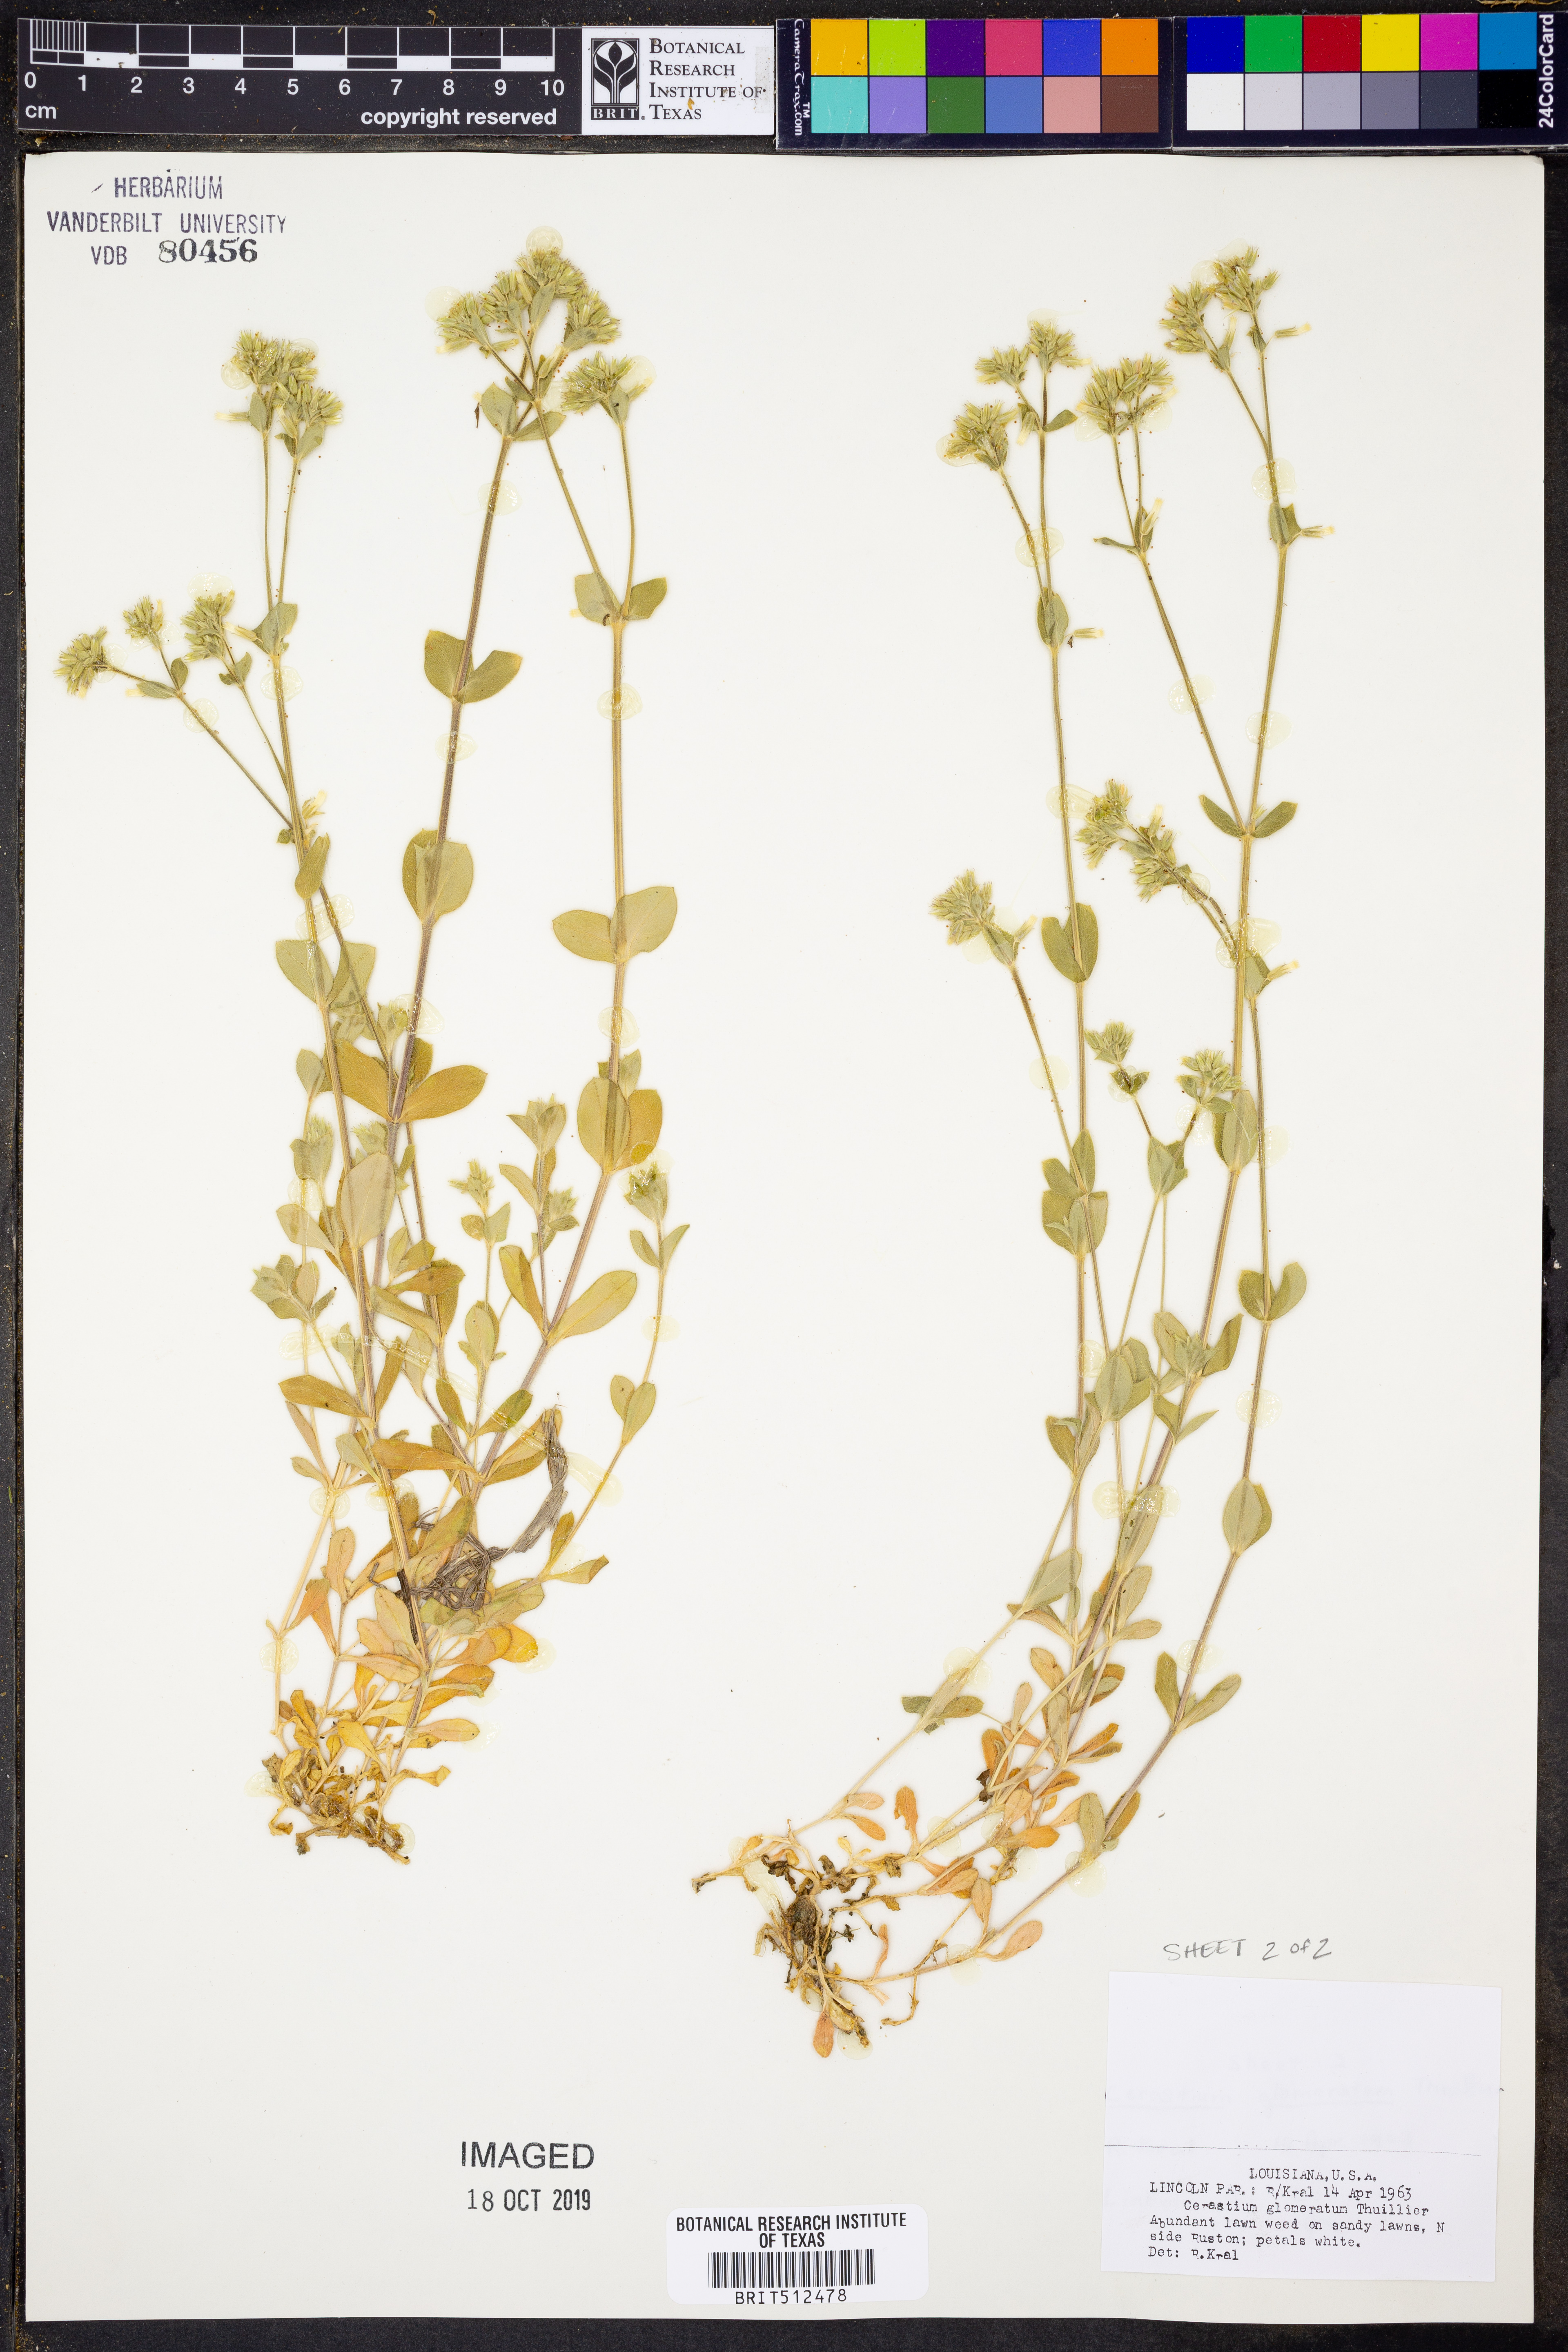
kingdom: Plantae
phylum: Tracheophyta
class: Magnoliopsida
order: Caryophyllales
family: Caryophyllaceae
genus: Cerastium
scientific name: Cerastium glomeratum
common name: Sticky chickweed
